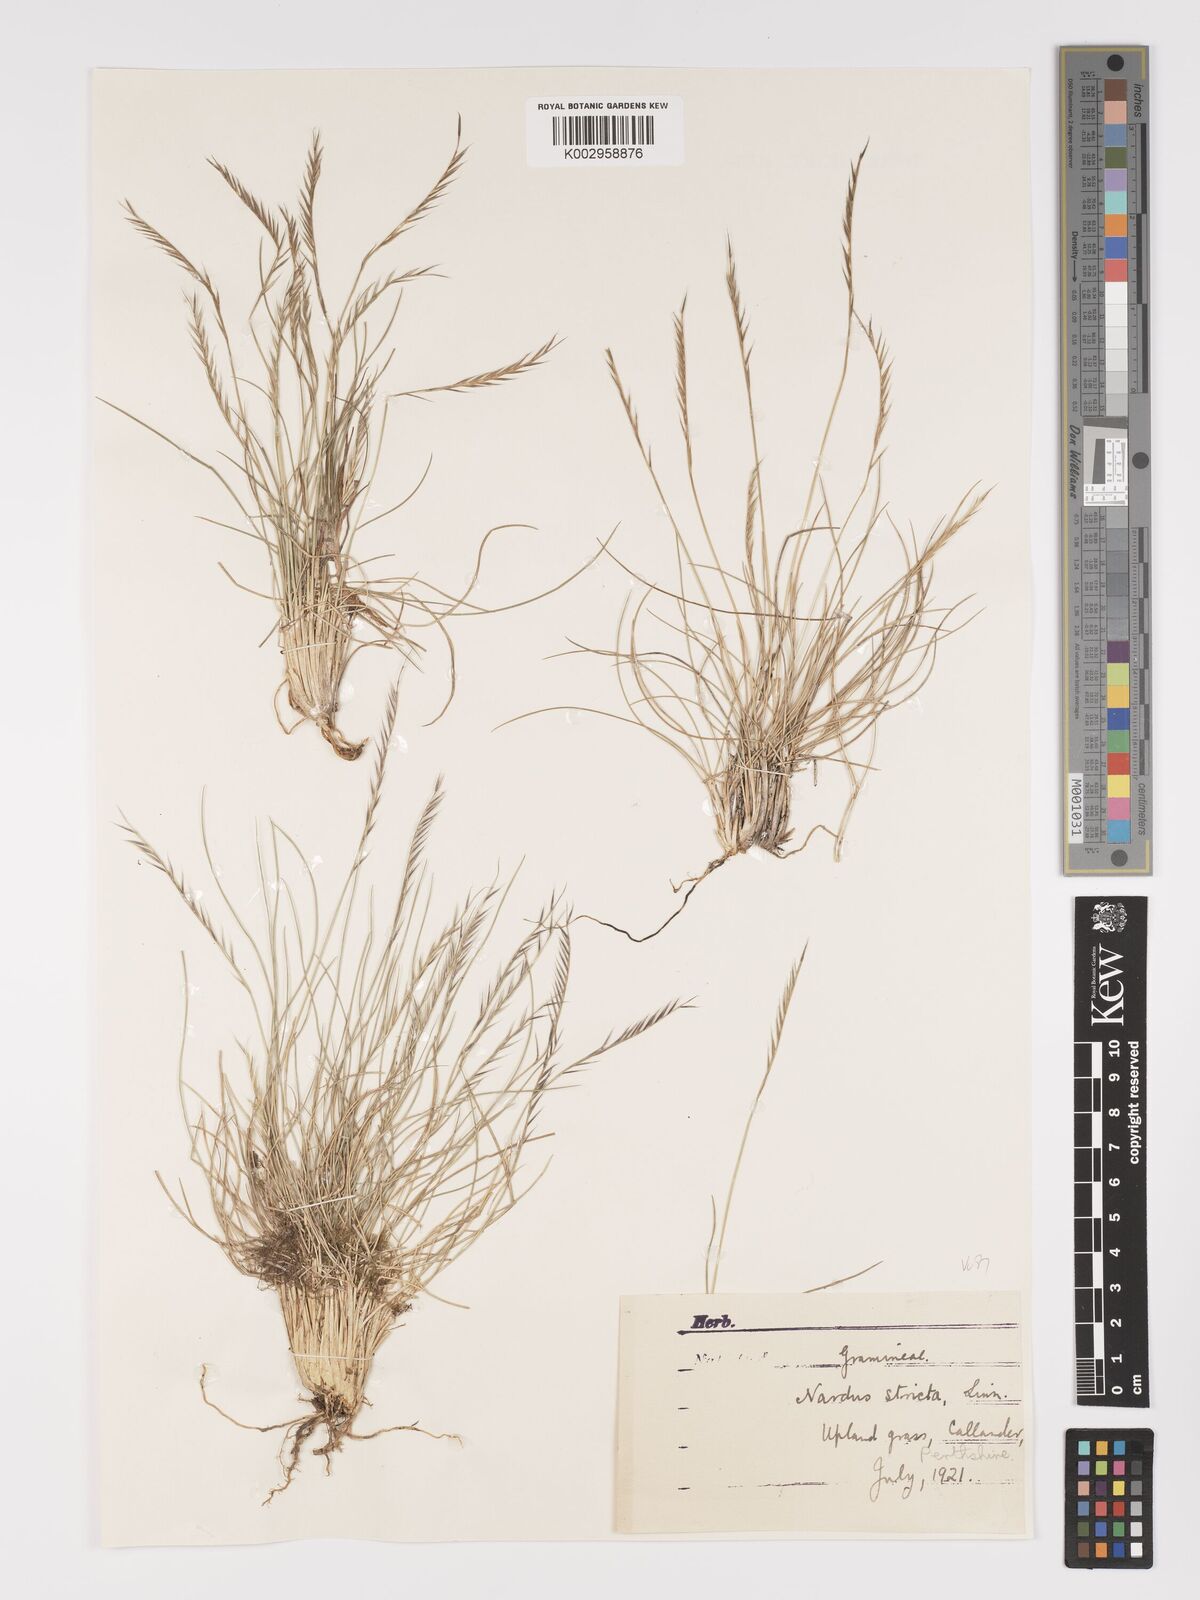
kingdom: Plantae
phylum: Tracheophyta
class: Liliopsida
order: Poales
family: Poaceae
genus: Nardus
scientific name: Nardus stricta
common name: Mat-grass
